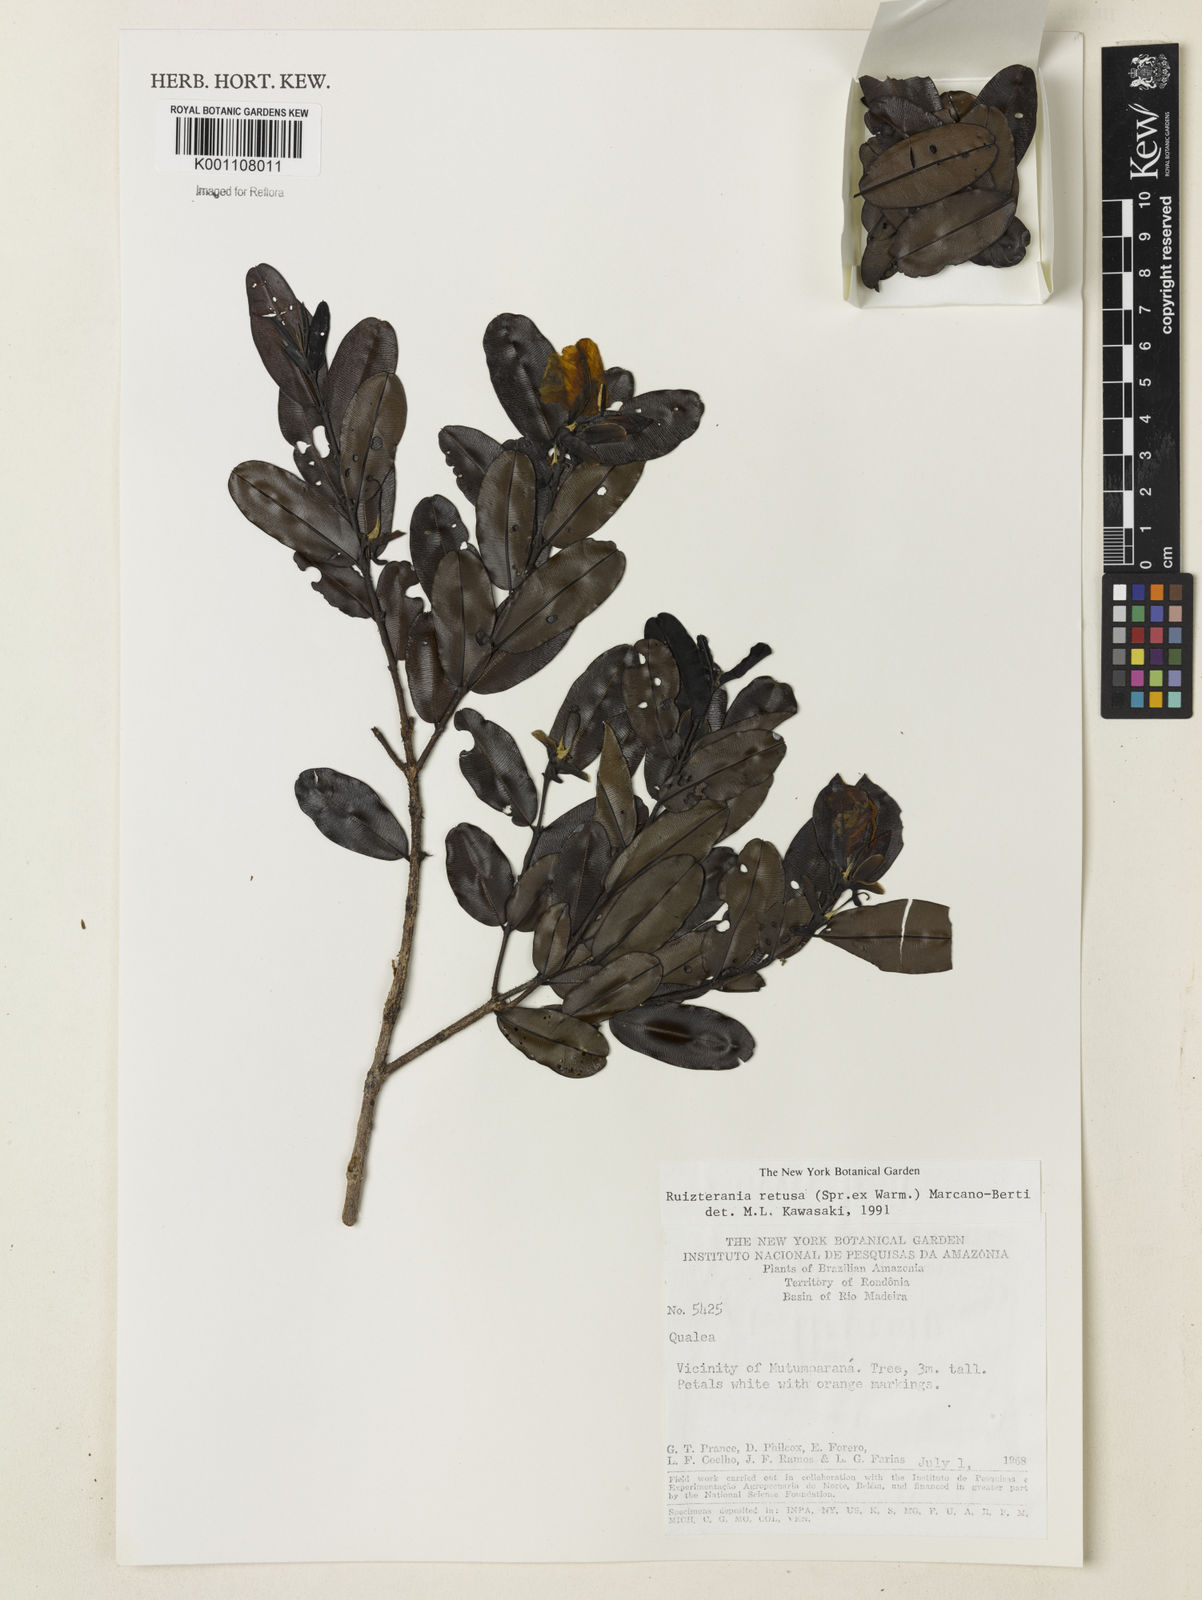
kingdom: Plantae
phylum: Tracheophyta
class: Magnoliopsida
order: Myrtales
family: Vochysiaceae
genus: Ruizterania
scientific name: Ruizterania retusa
